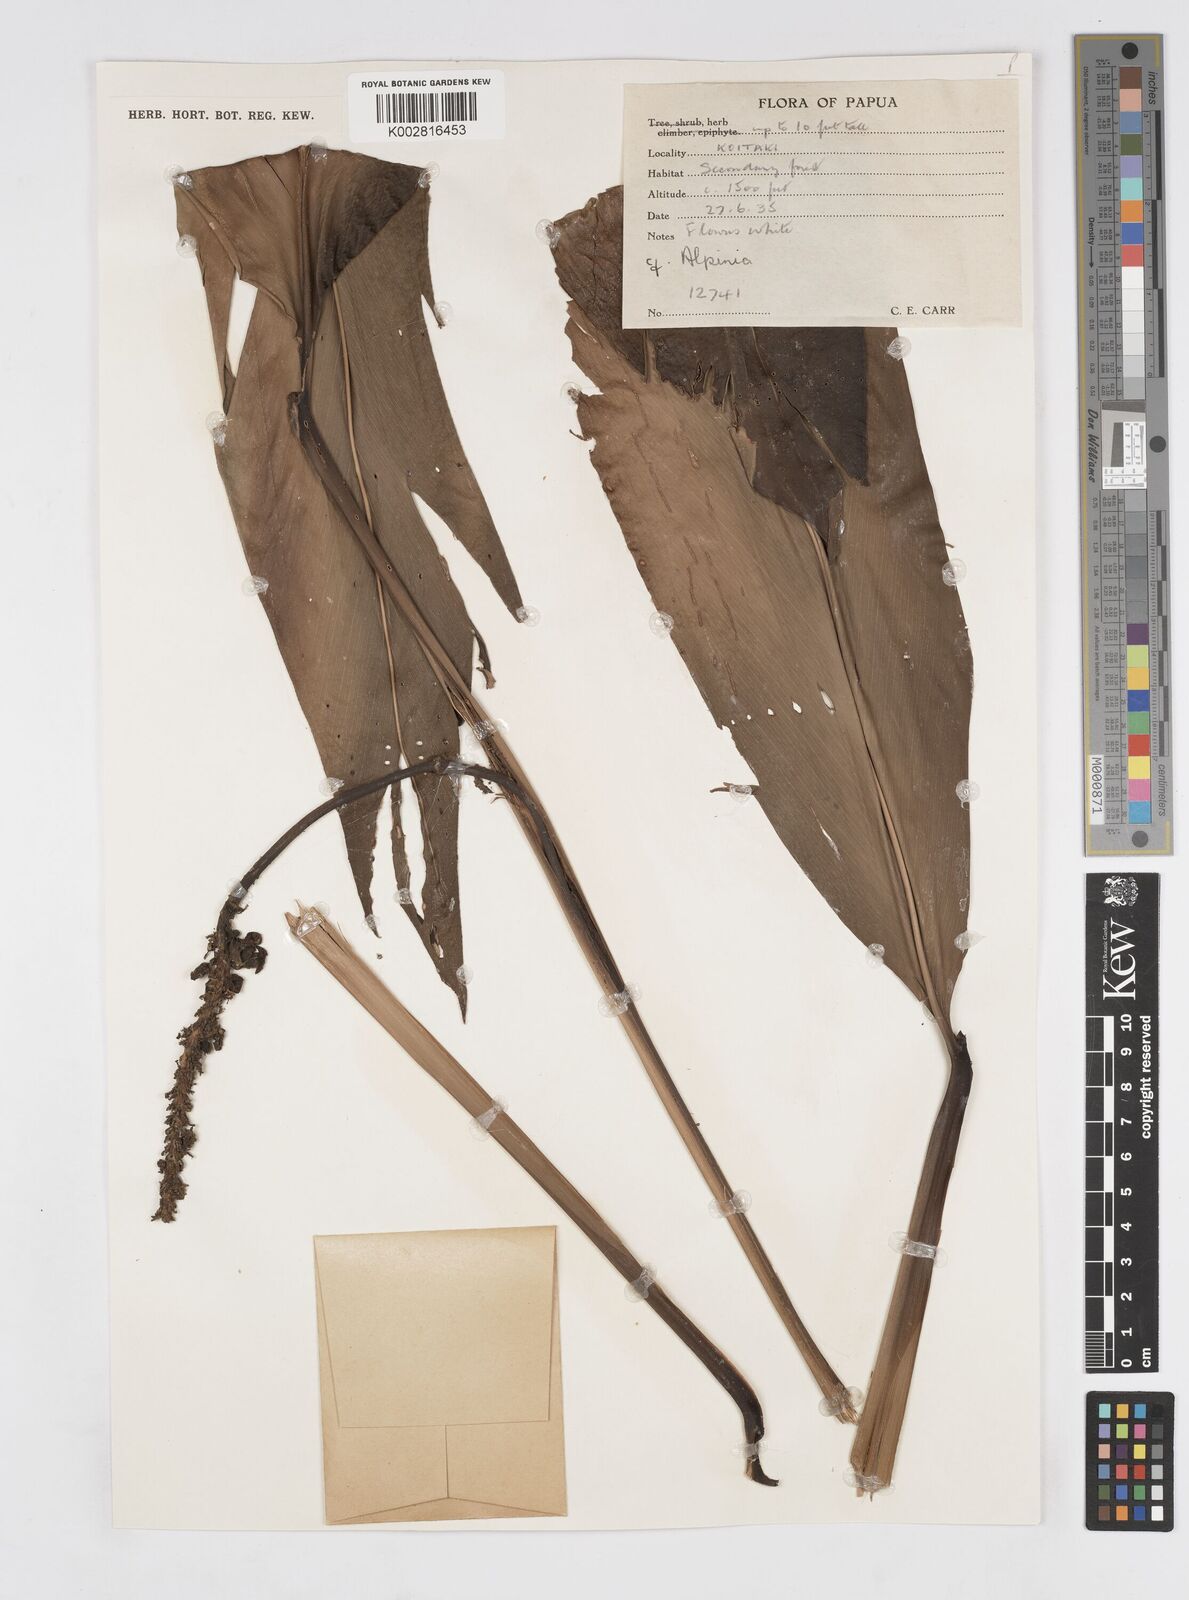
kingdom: Plantae
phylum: Tracheophyta
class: Liliopsida
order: Zingiberales
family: Zingiberaceae
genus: Alpinia
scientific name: Alpinia
